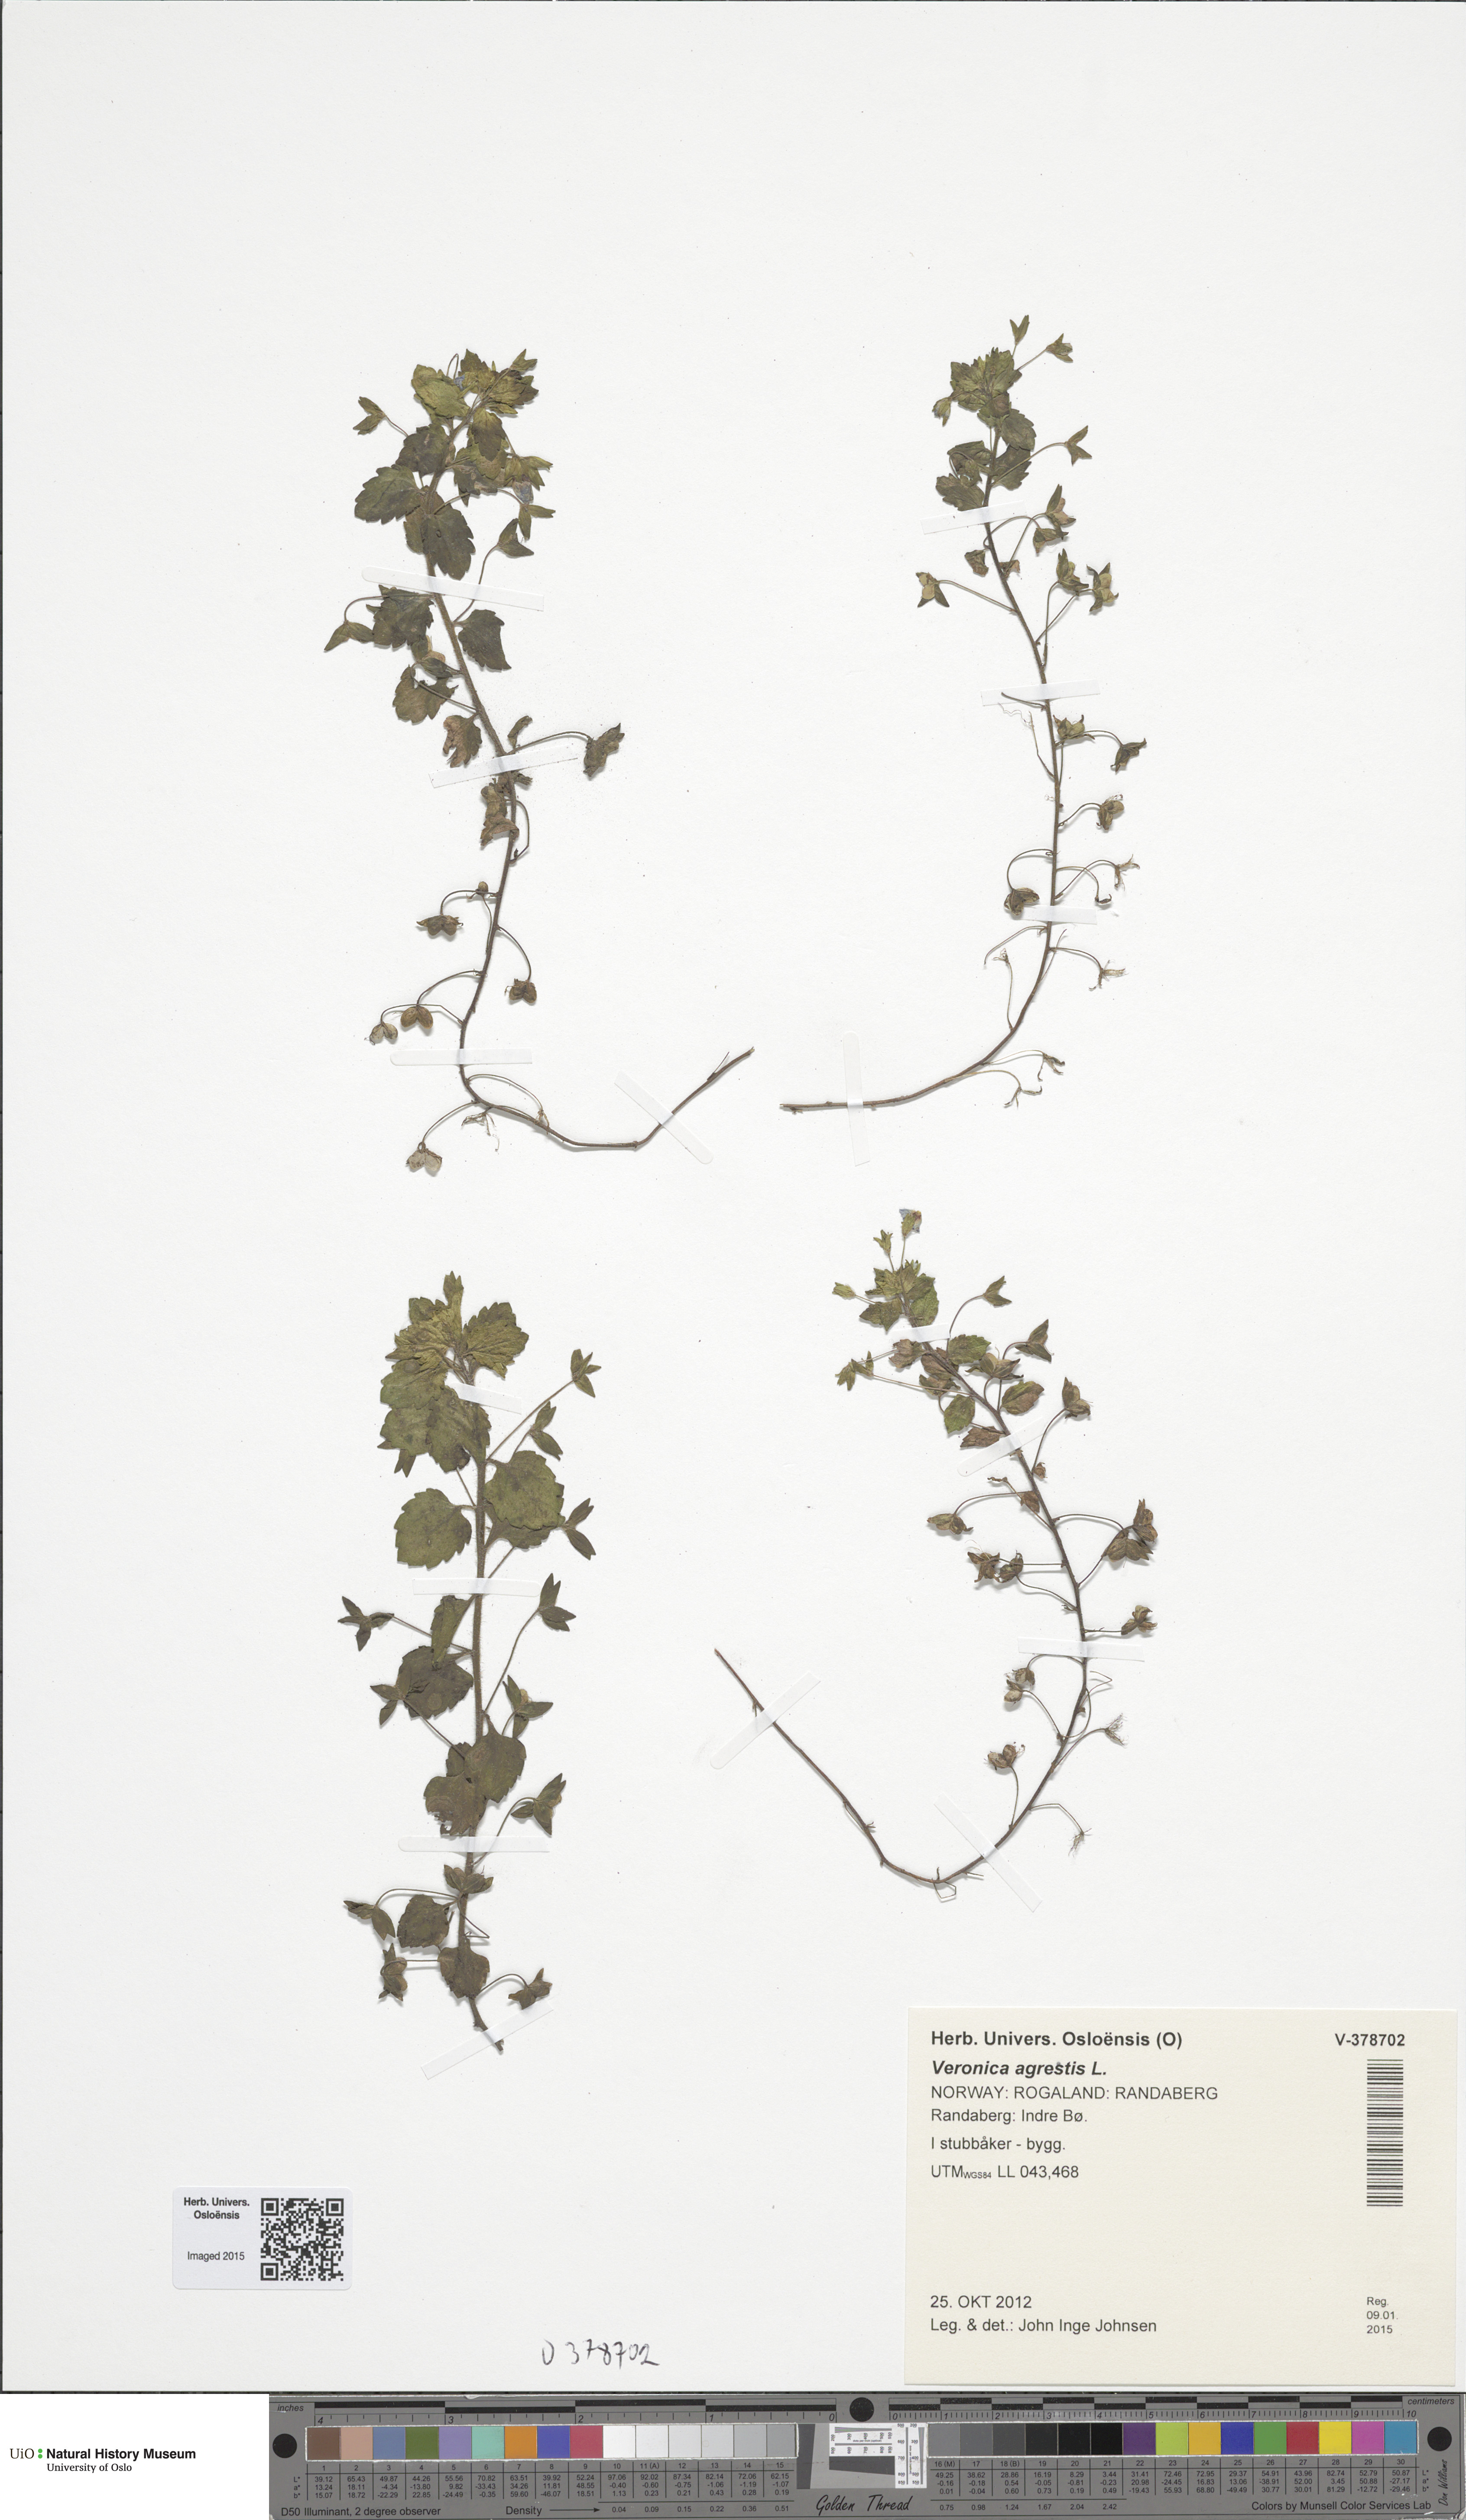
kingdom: Plantae
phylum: Tracheophyta
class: Magnoliopsida
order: Lamiales
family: Plantaginaceae
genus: Veronica
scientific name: Veronica persica
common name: Common field-speedwell
